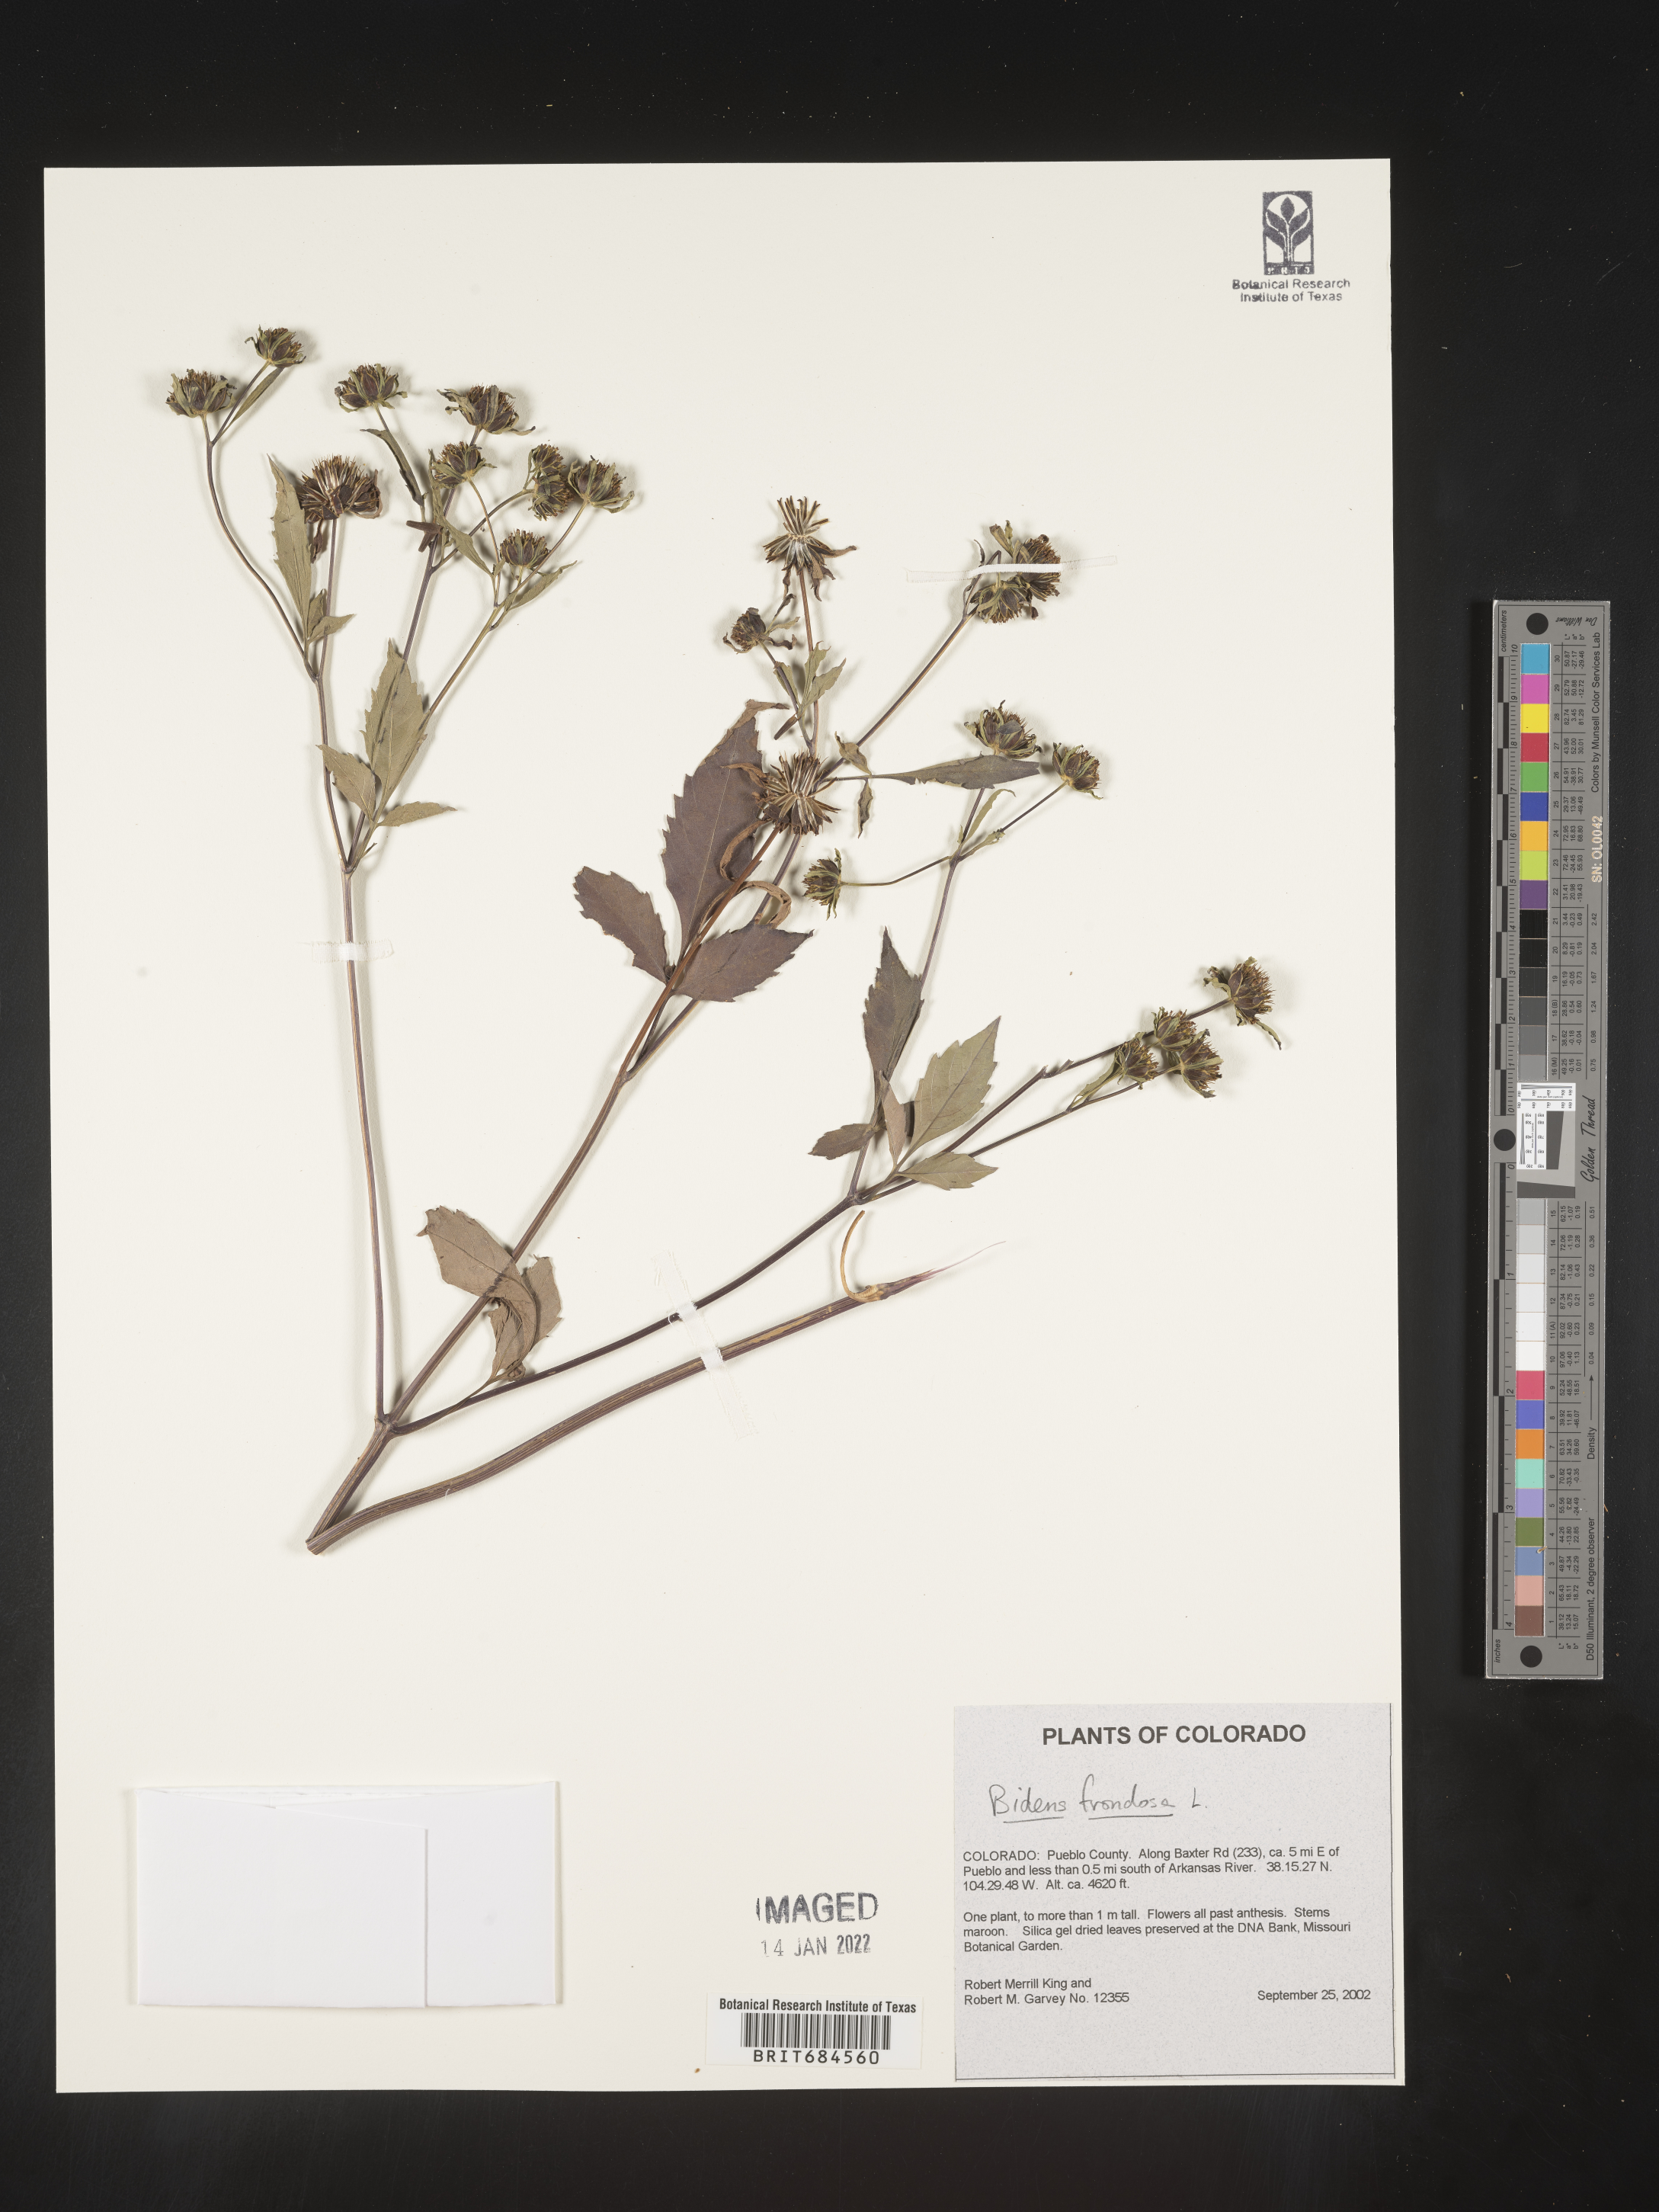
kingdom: Plantae
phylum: Tracheophyta
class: Magnoliopsida
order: Asterales
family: Asteraceae
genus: Bidens
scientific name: Bidens frondosa
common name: Beggarticks
